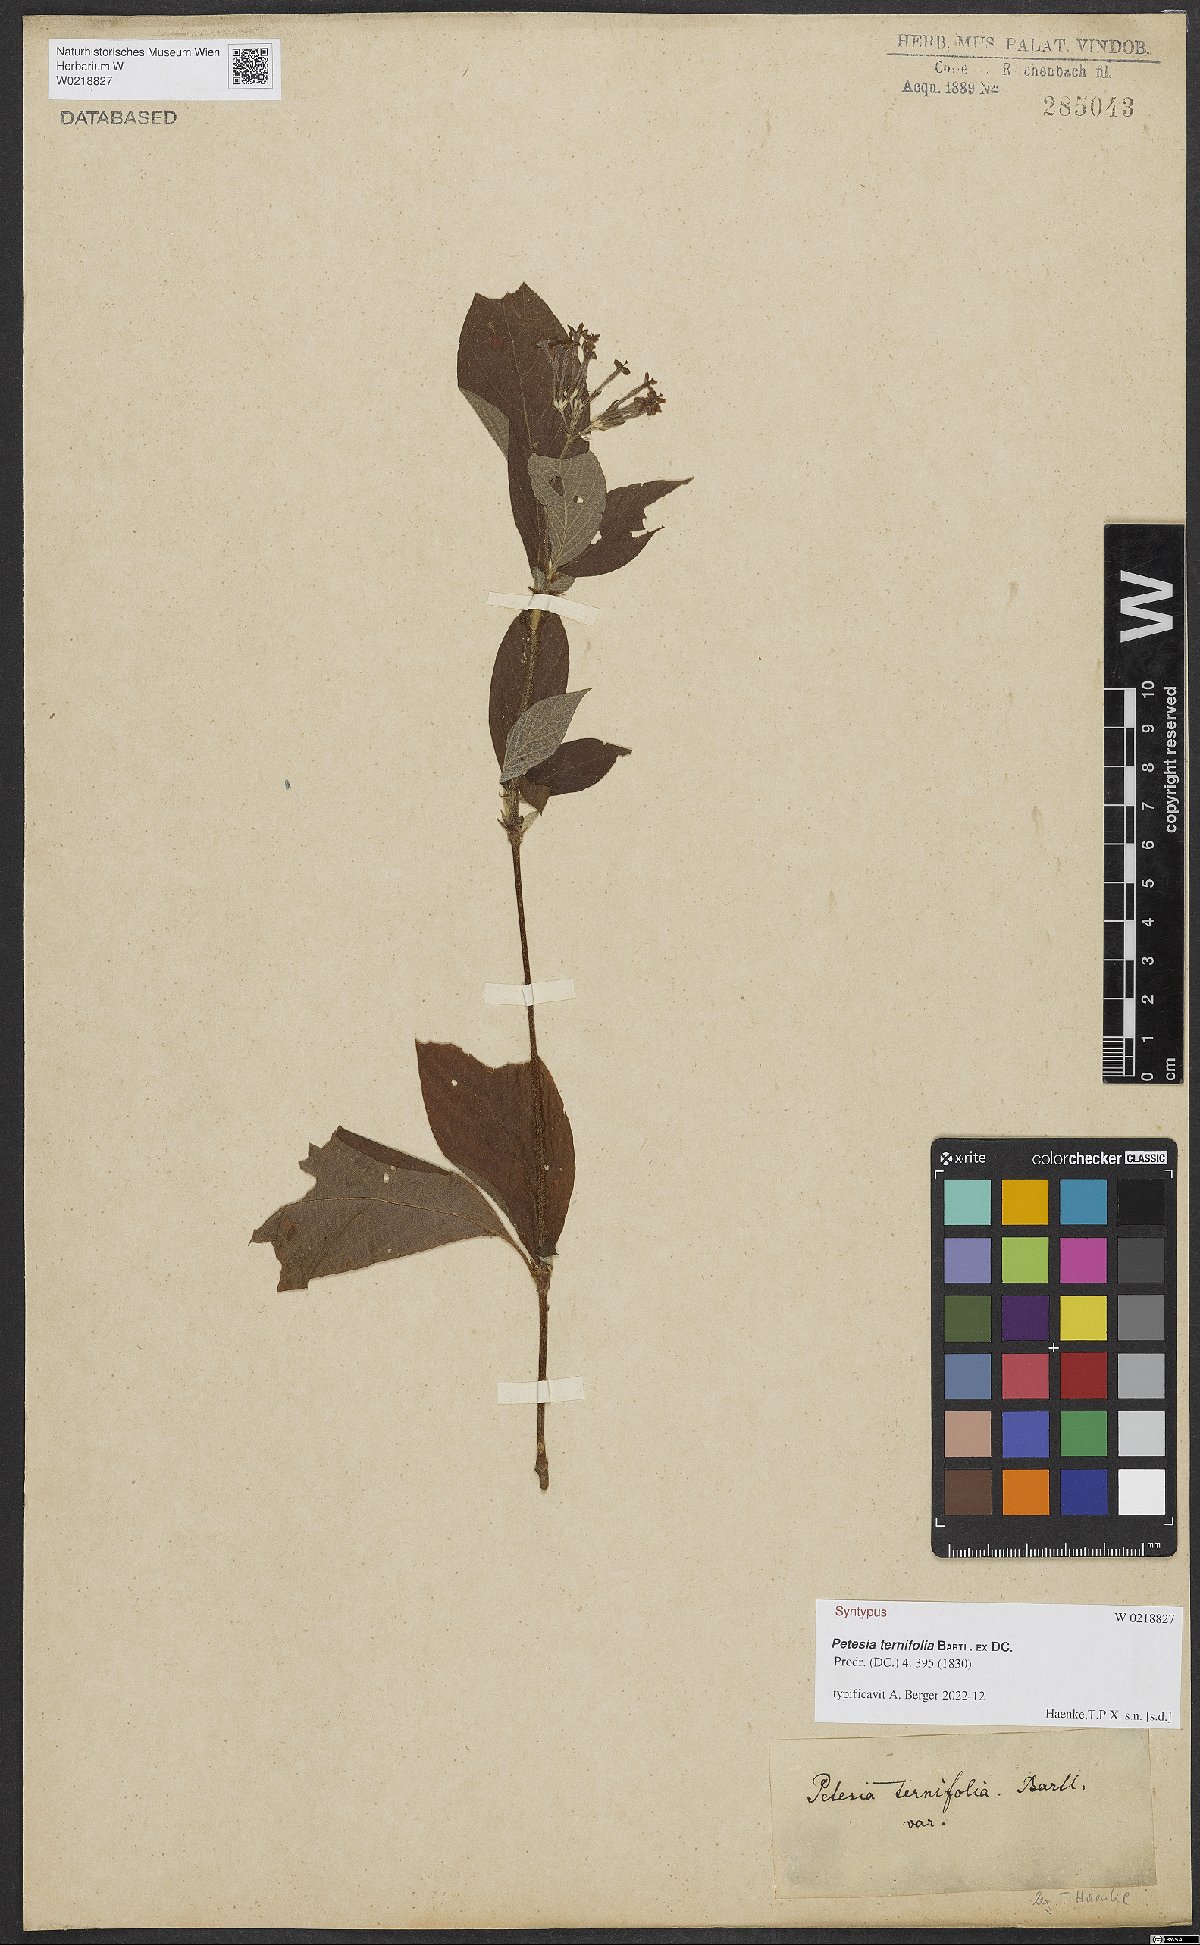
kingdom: Plantae
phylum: Tracheophyta
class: Magnoliopsida
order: Gentianales
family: Rubiaceae
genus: Timonius
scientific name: Timonius ternifolius
